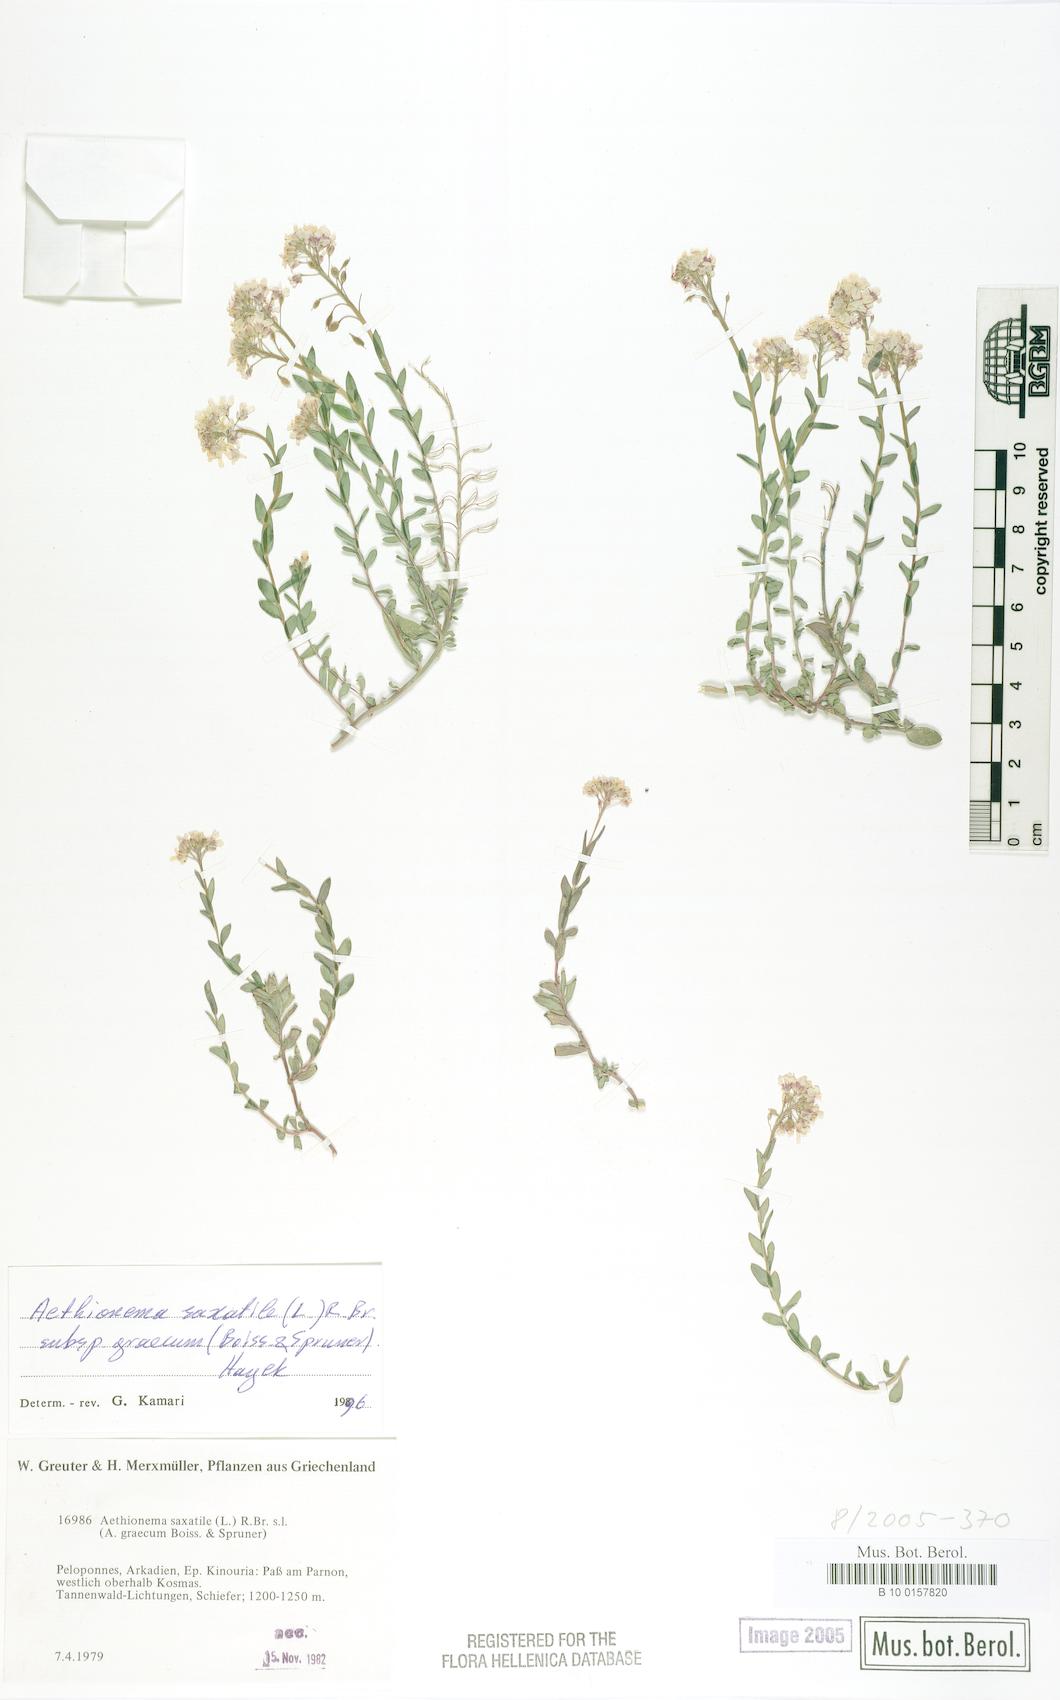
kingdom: Plantae
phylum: Tracheophyta
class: Magnoliopsida
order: Brassicales
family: Brassicaceae
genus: Aethionema
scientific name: Aethionema saxatile
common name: Burnt candytuft
